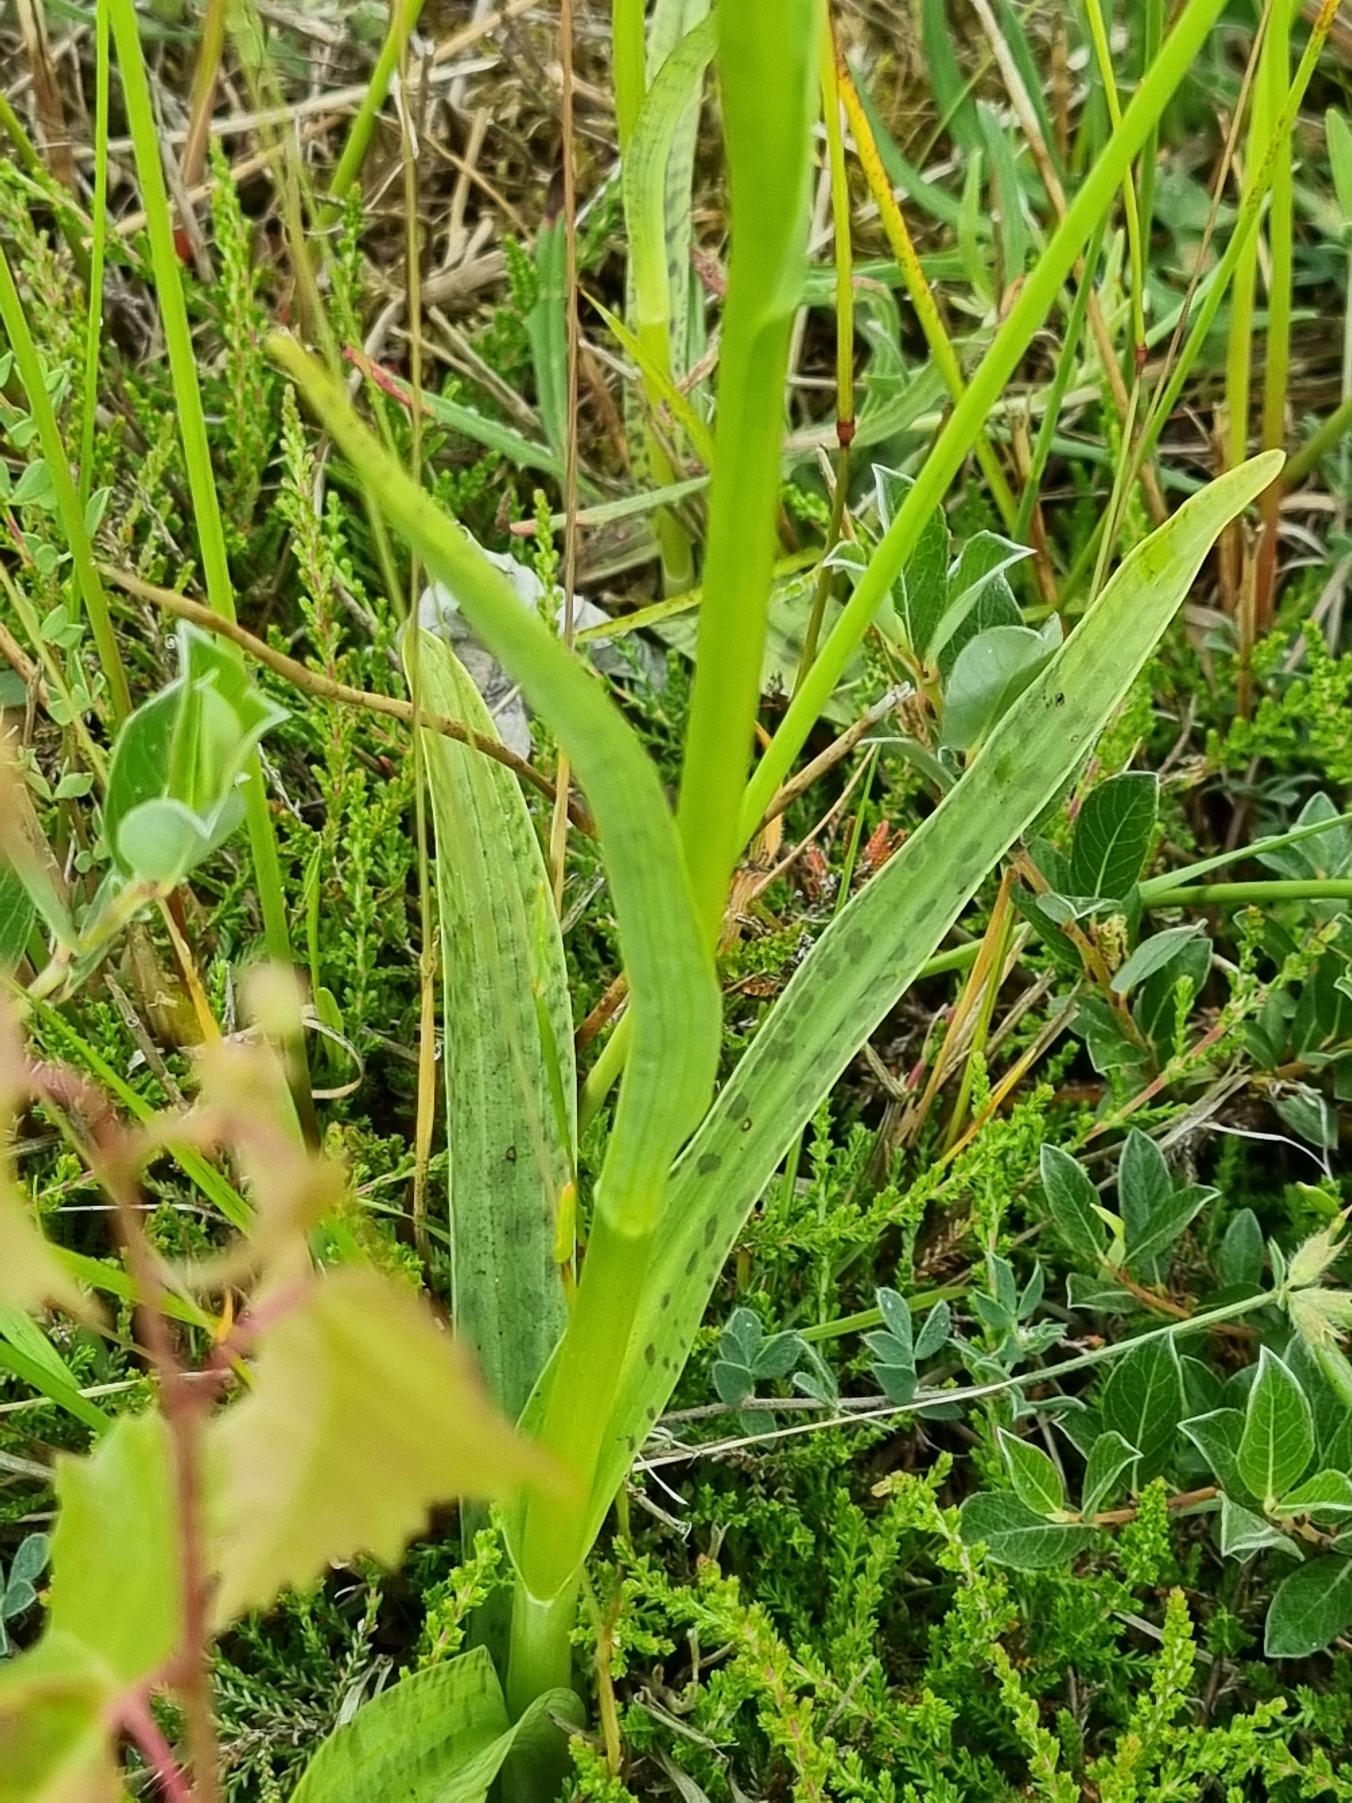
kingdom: Plantae
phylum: Tracheophyta
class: Liliopsida
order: Asparagales
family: Orchidaceae
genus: Dactylorhiza
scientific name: Dactylorhiza maculata
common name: Plettet gøgeurt
